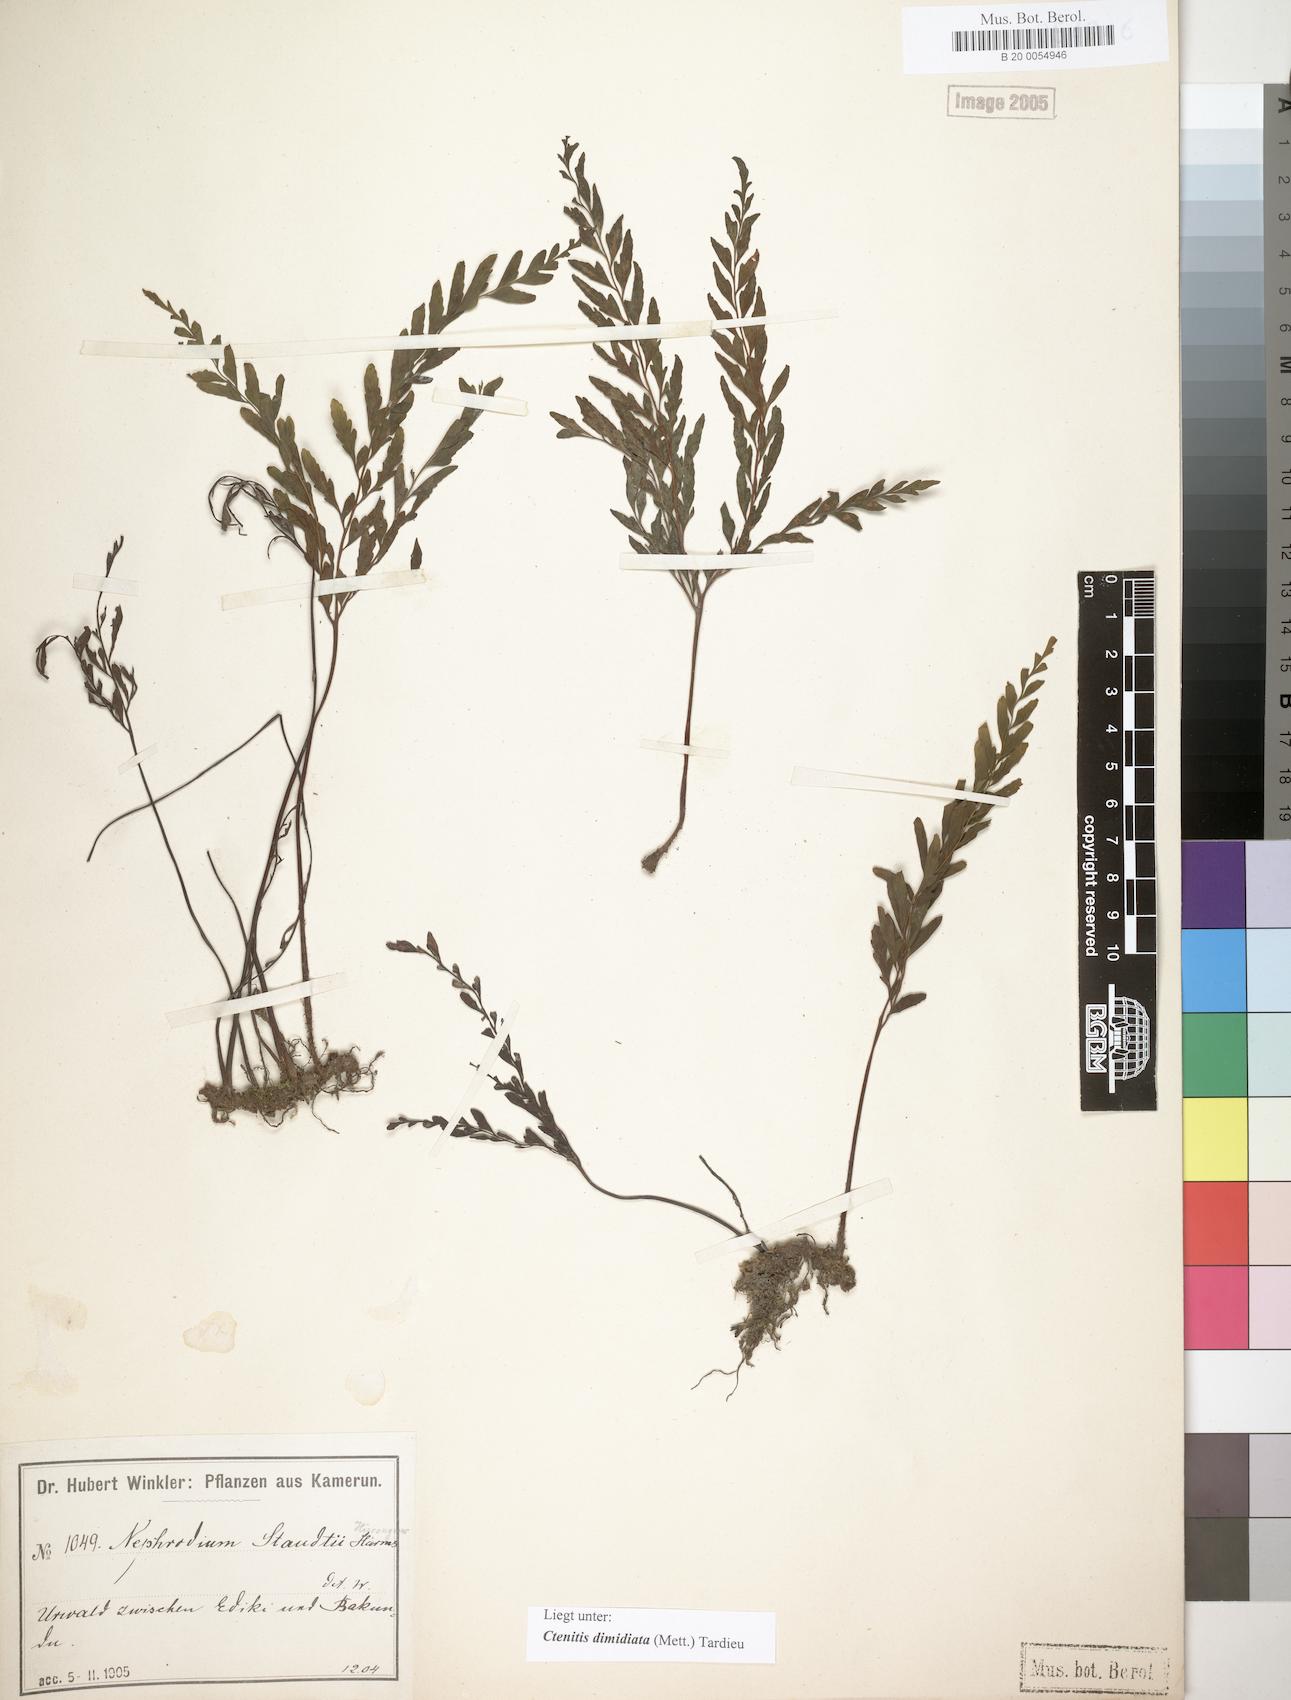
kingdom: Plantae
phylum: Tracheophyta
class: Polypodiopsida
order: Polypodiales
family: Tectariaceae
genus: Triplophyllum
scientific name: Triplophyllum dimidiatum
